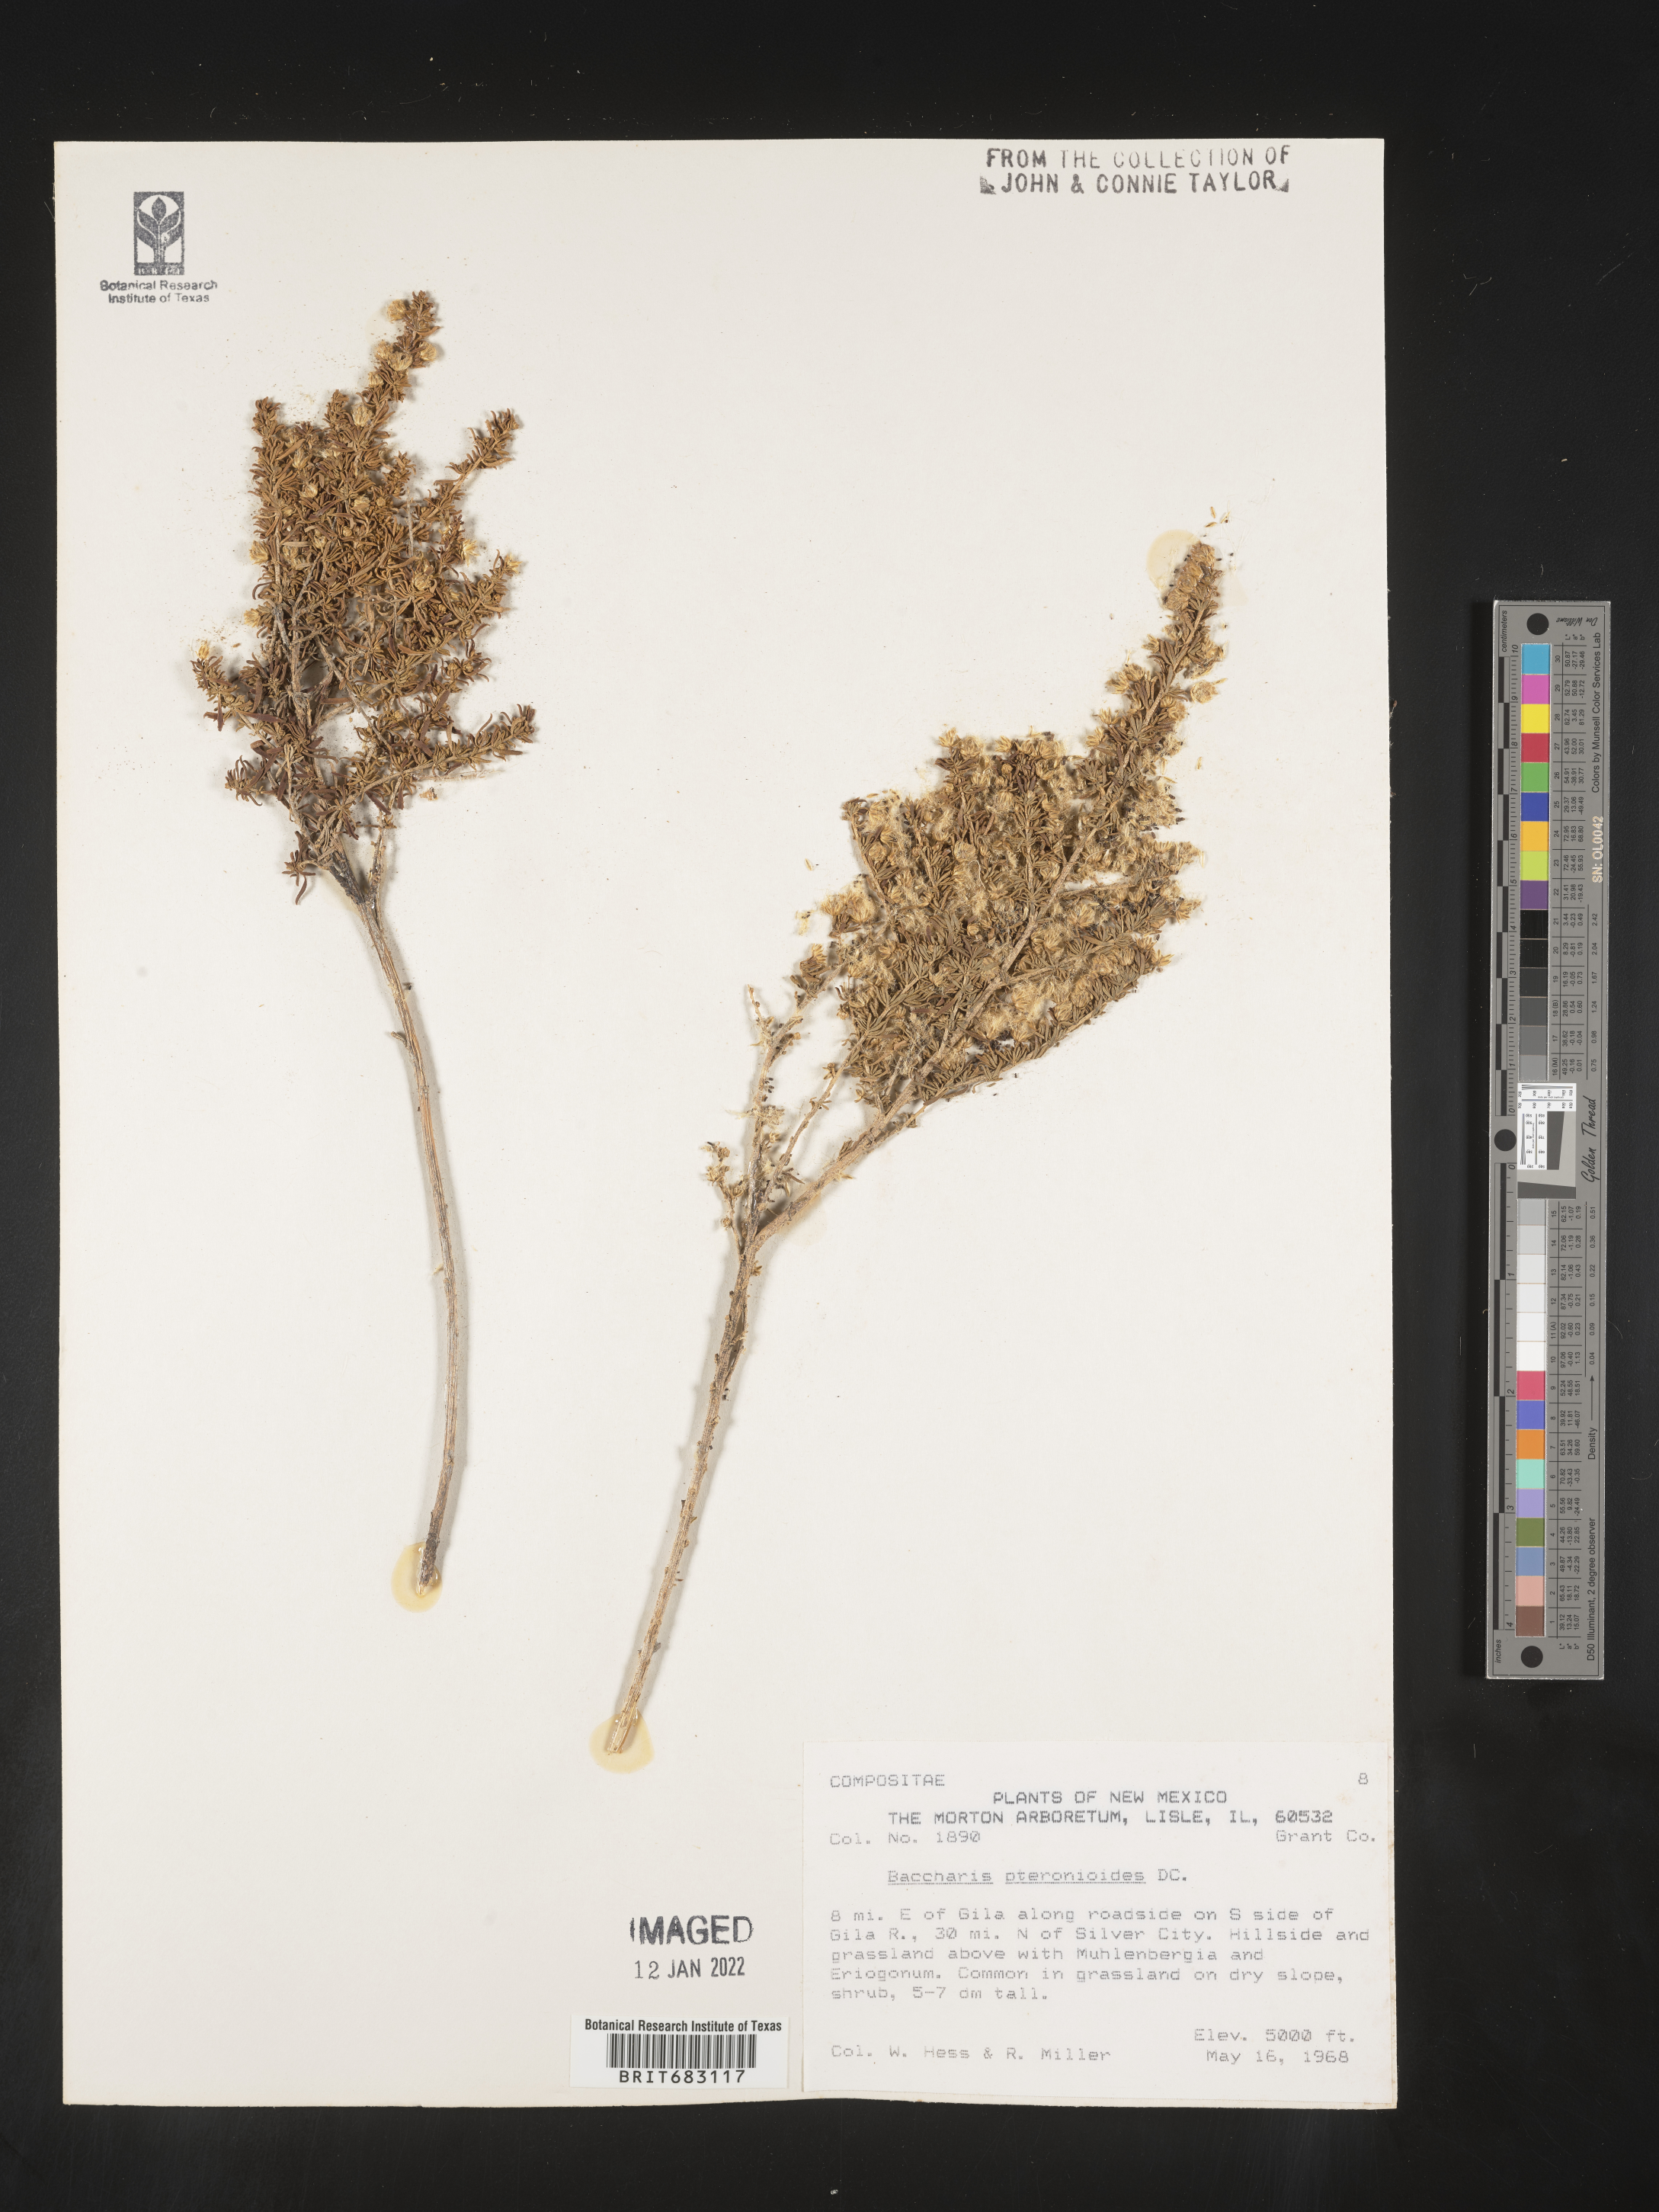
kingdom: Plantae
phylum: Tracheophyta
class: Magnoliopsida
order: Asterales
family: Asteraceae
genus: Baccharis
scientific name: Baccharis pteronioides
